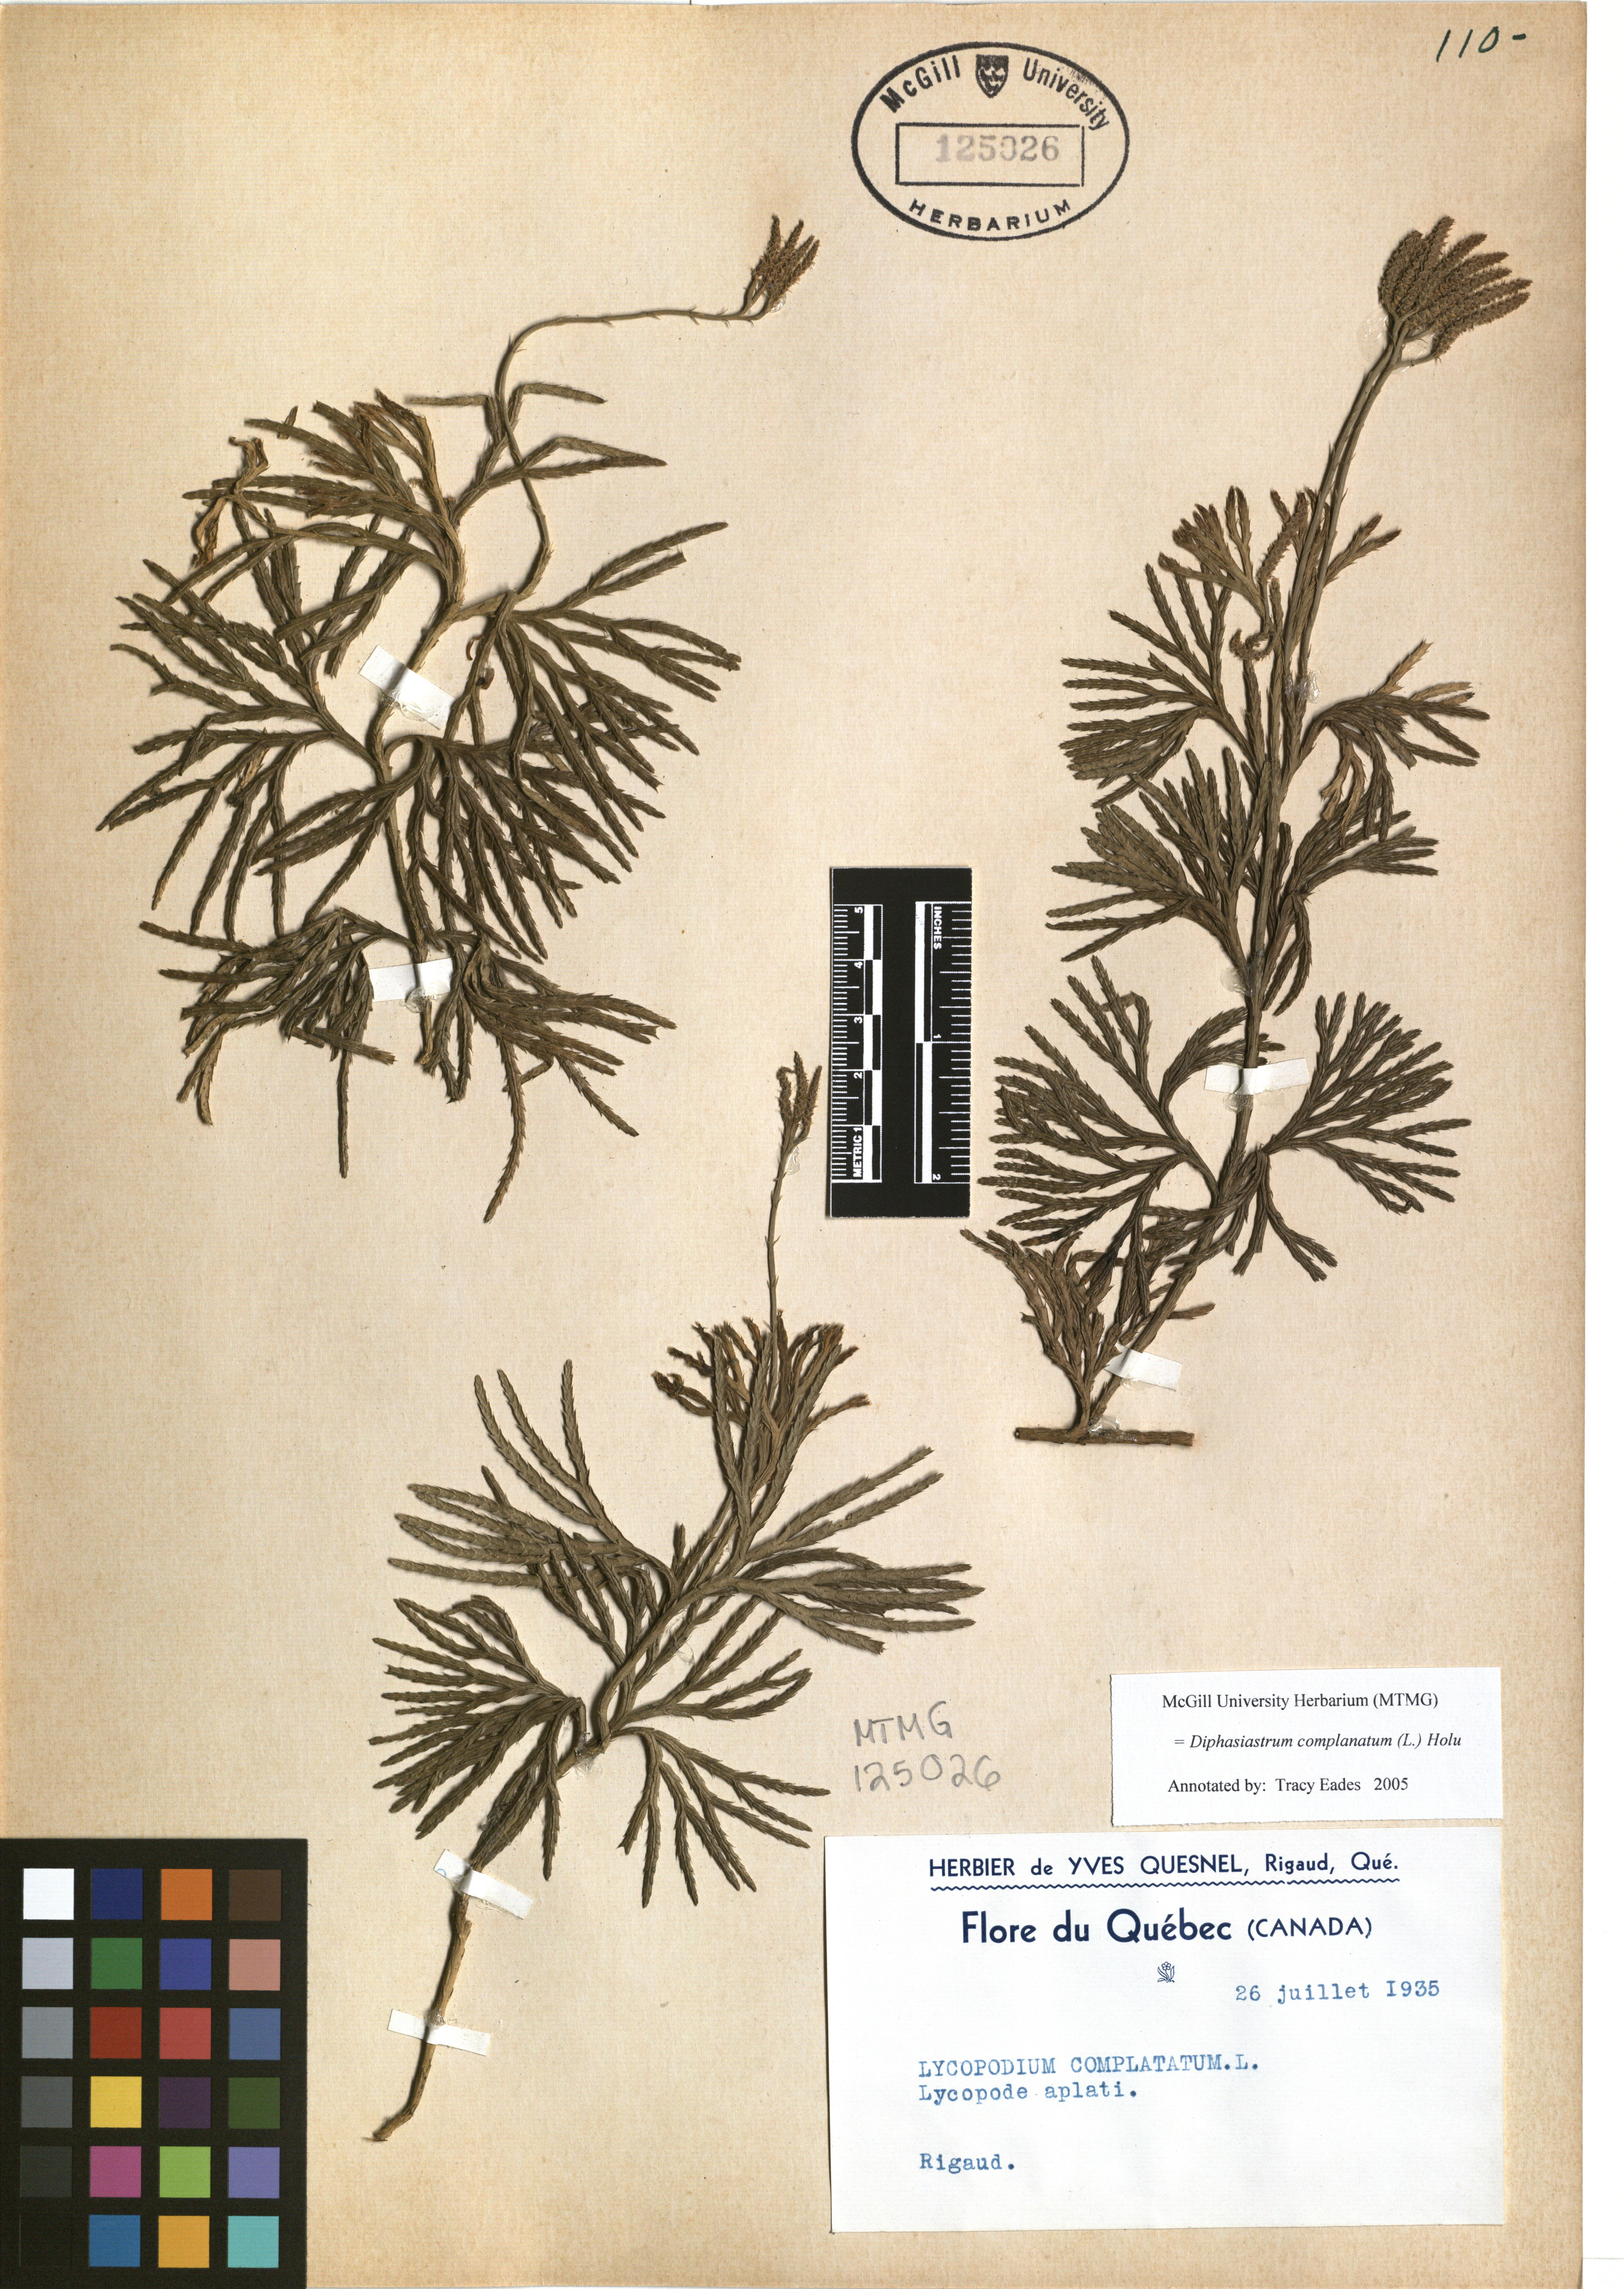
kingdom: Plantae
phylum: Tracheophyta
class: Lycopodiopsida
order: Lycopodiales
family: Lycopodiaceae
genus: Diphasiastrum
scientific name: Diphasiastrum complanatum
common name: Northern running-pine
